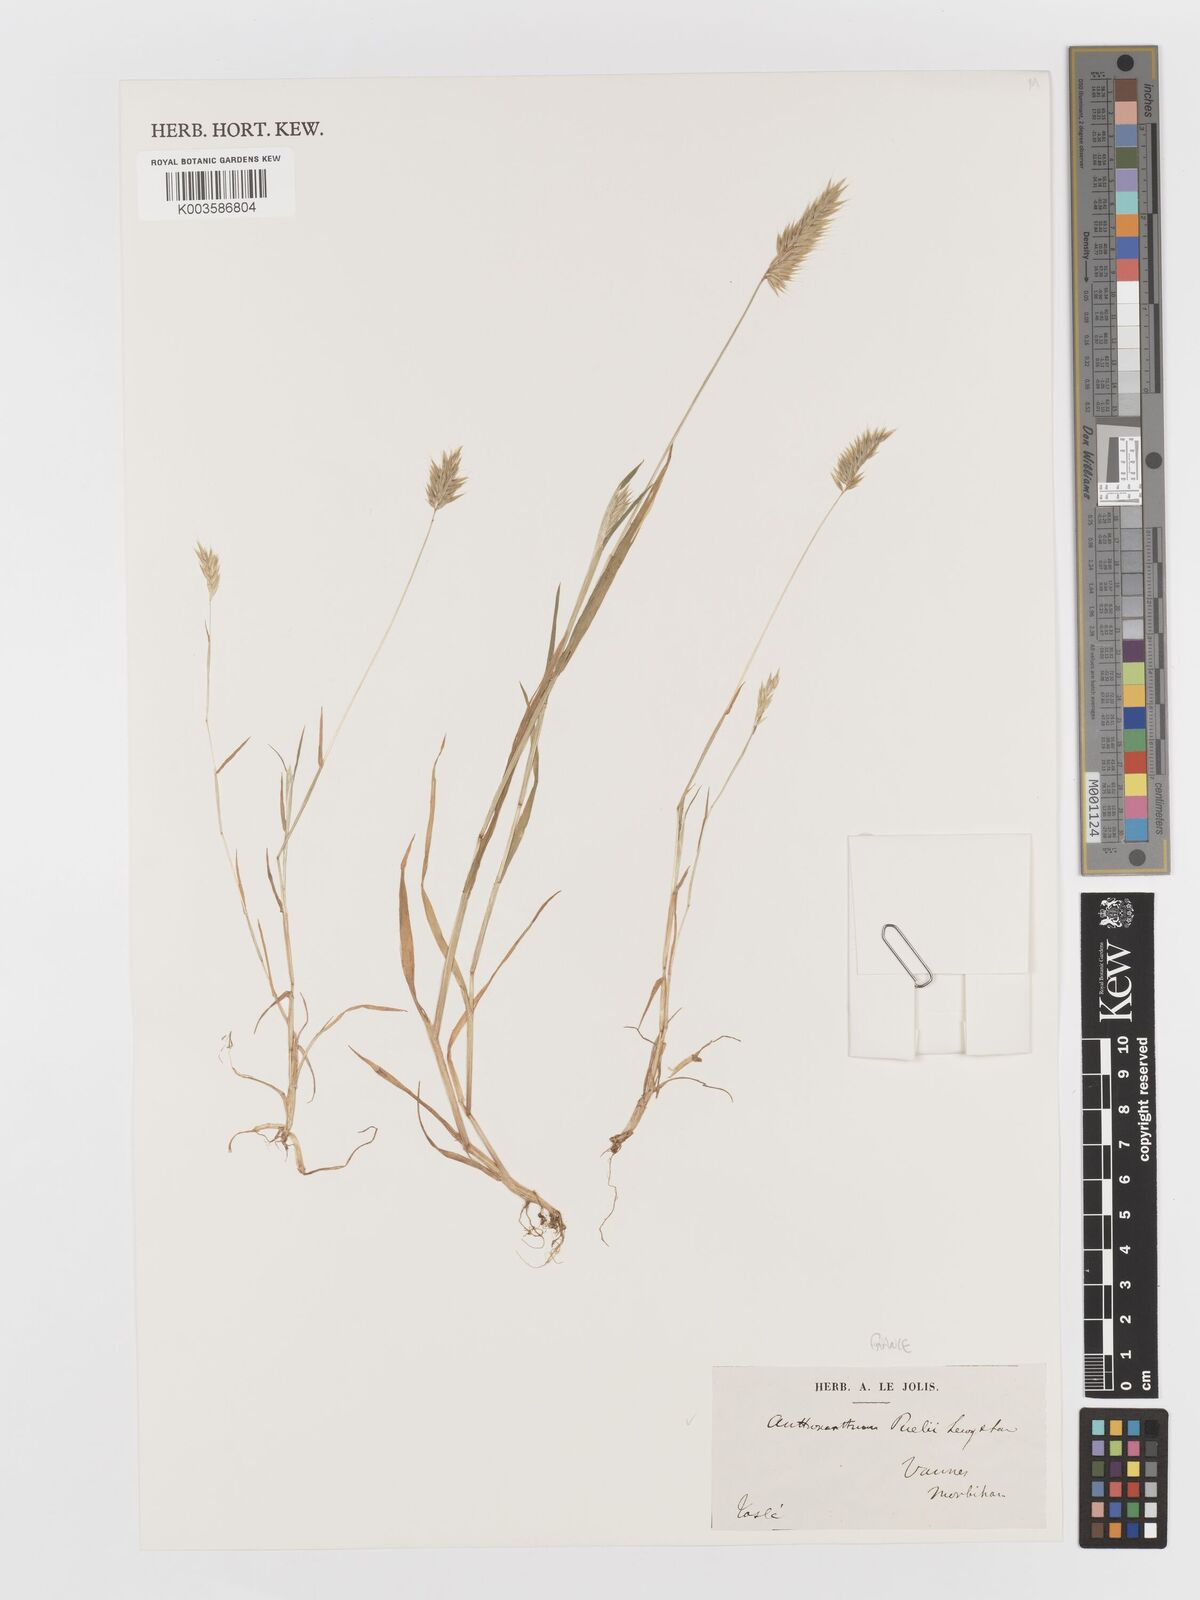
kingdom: Plantae
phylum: Tracheophyta
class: Liliopsida
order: Poales
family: Poaceae
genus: Anthoxanthum
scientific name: Anthoxanthum
